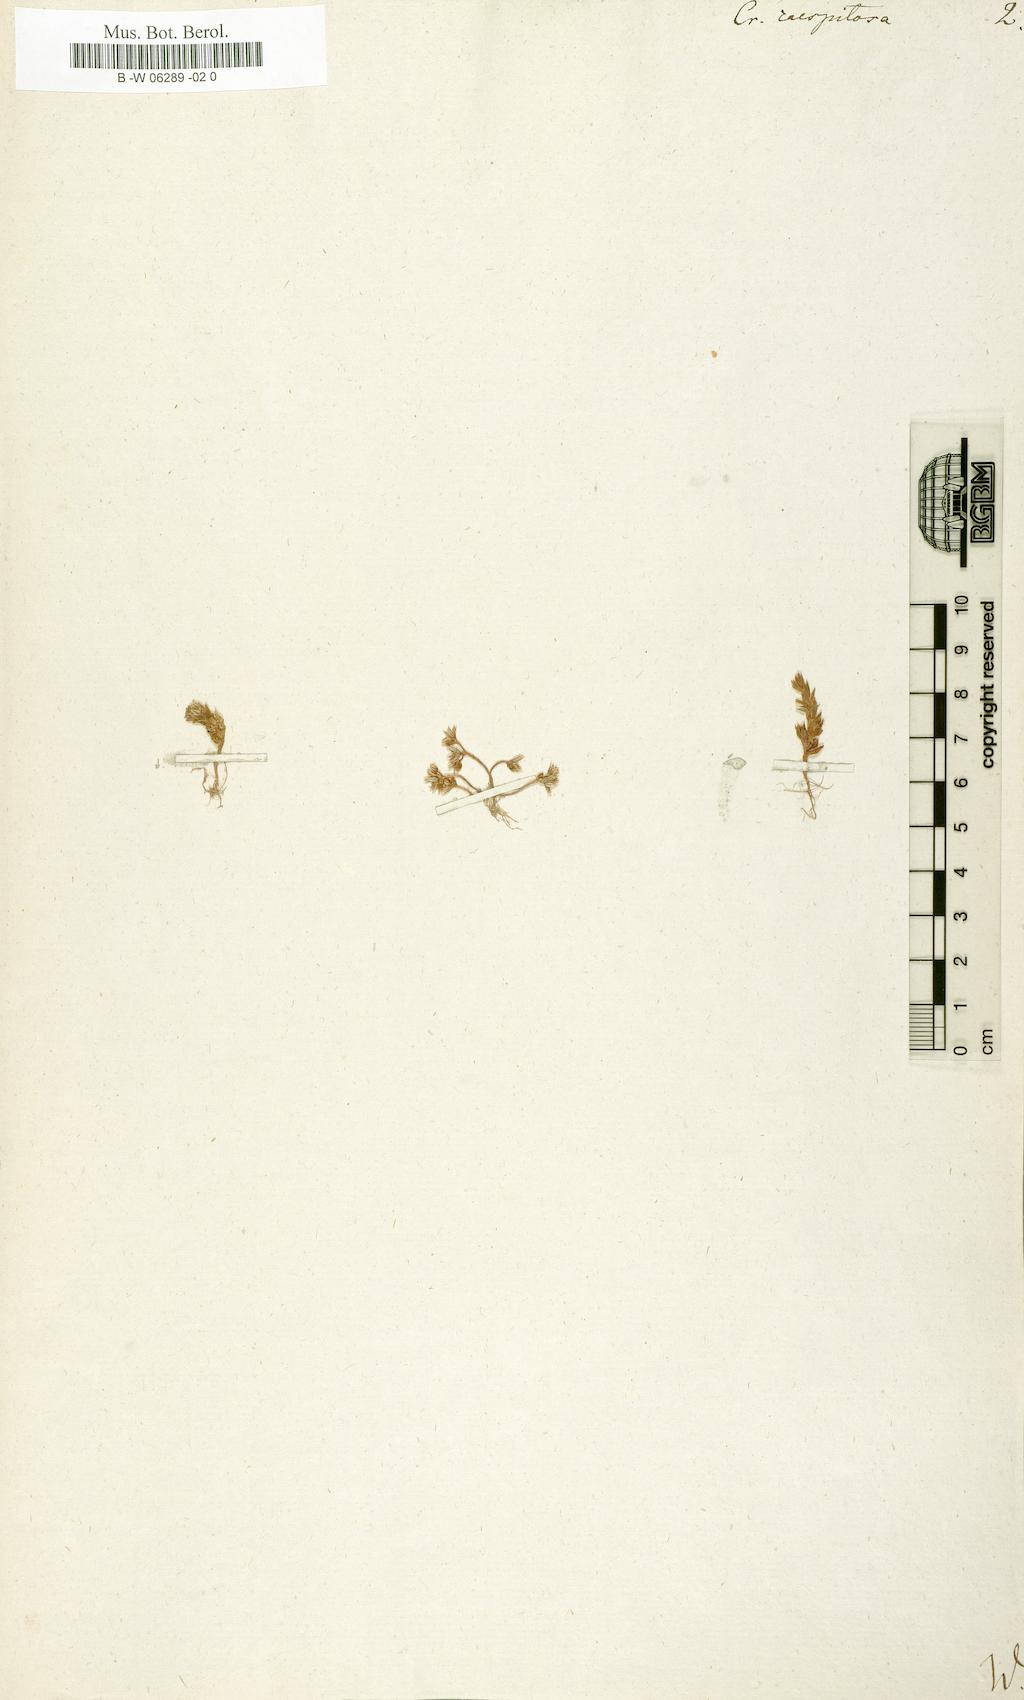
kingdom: Plantae
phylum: Tracheophyta
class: Magnoliopsida
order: Saxifragales
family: Crassulaceae
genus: Sedum
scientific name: Sedum cespitosum
